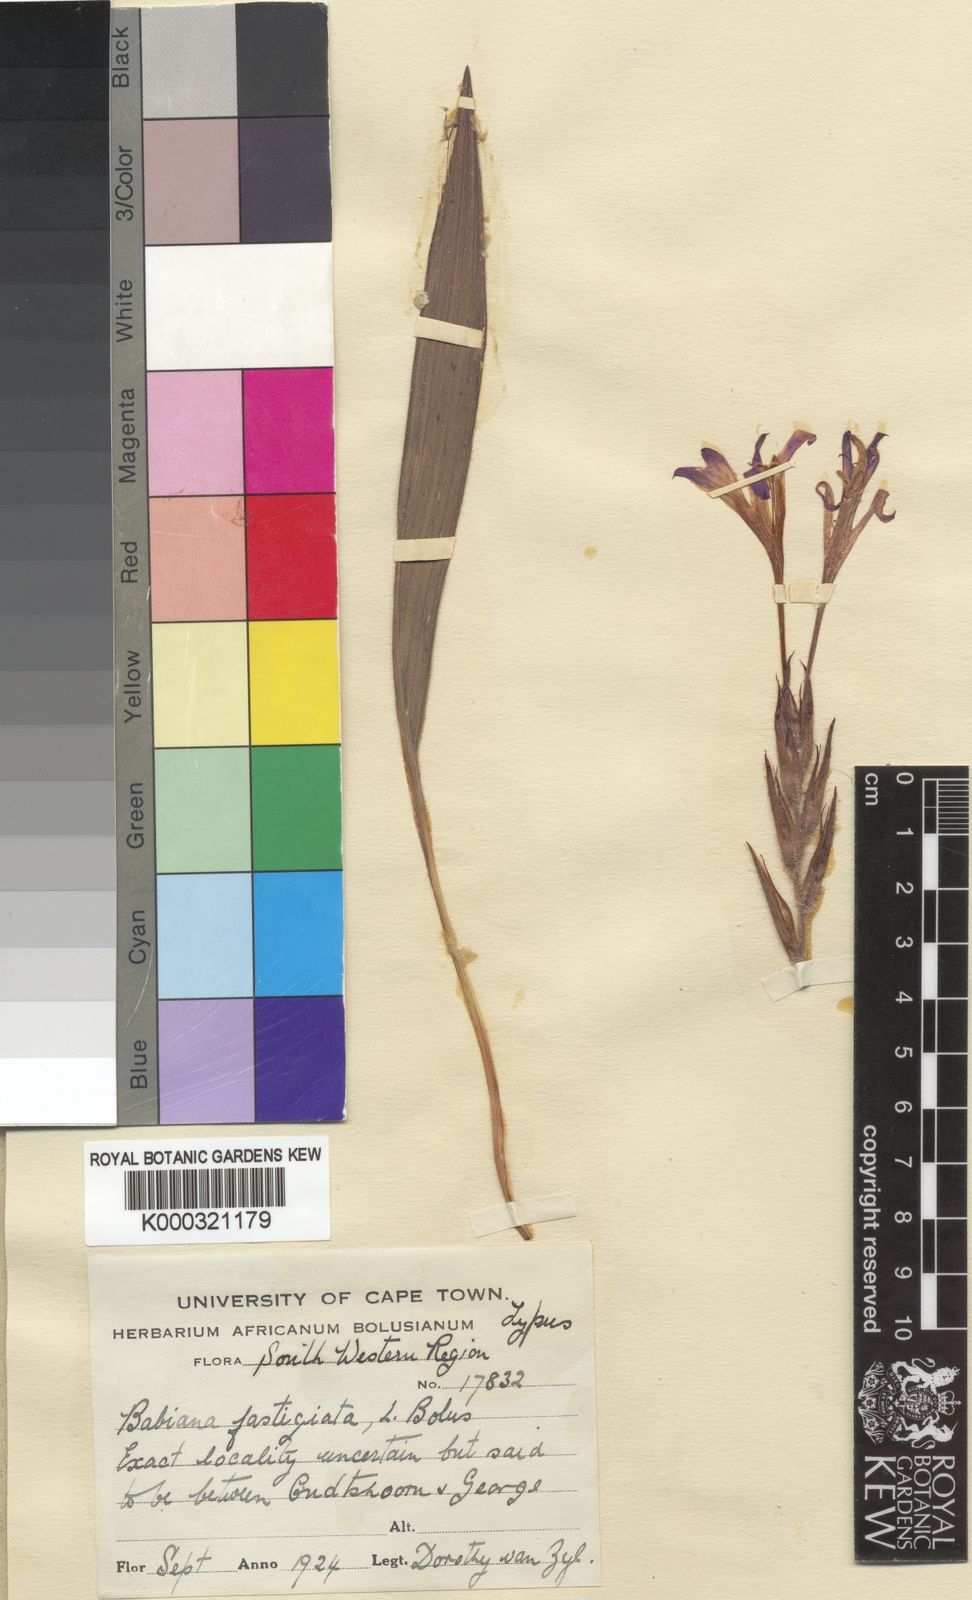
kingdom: Plantae
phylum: Tracheophyta
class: Liliopsida
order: Asparagales
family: Iridaceae
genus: Babiana
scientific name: Babiana ecklonii
